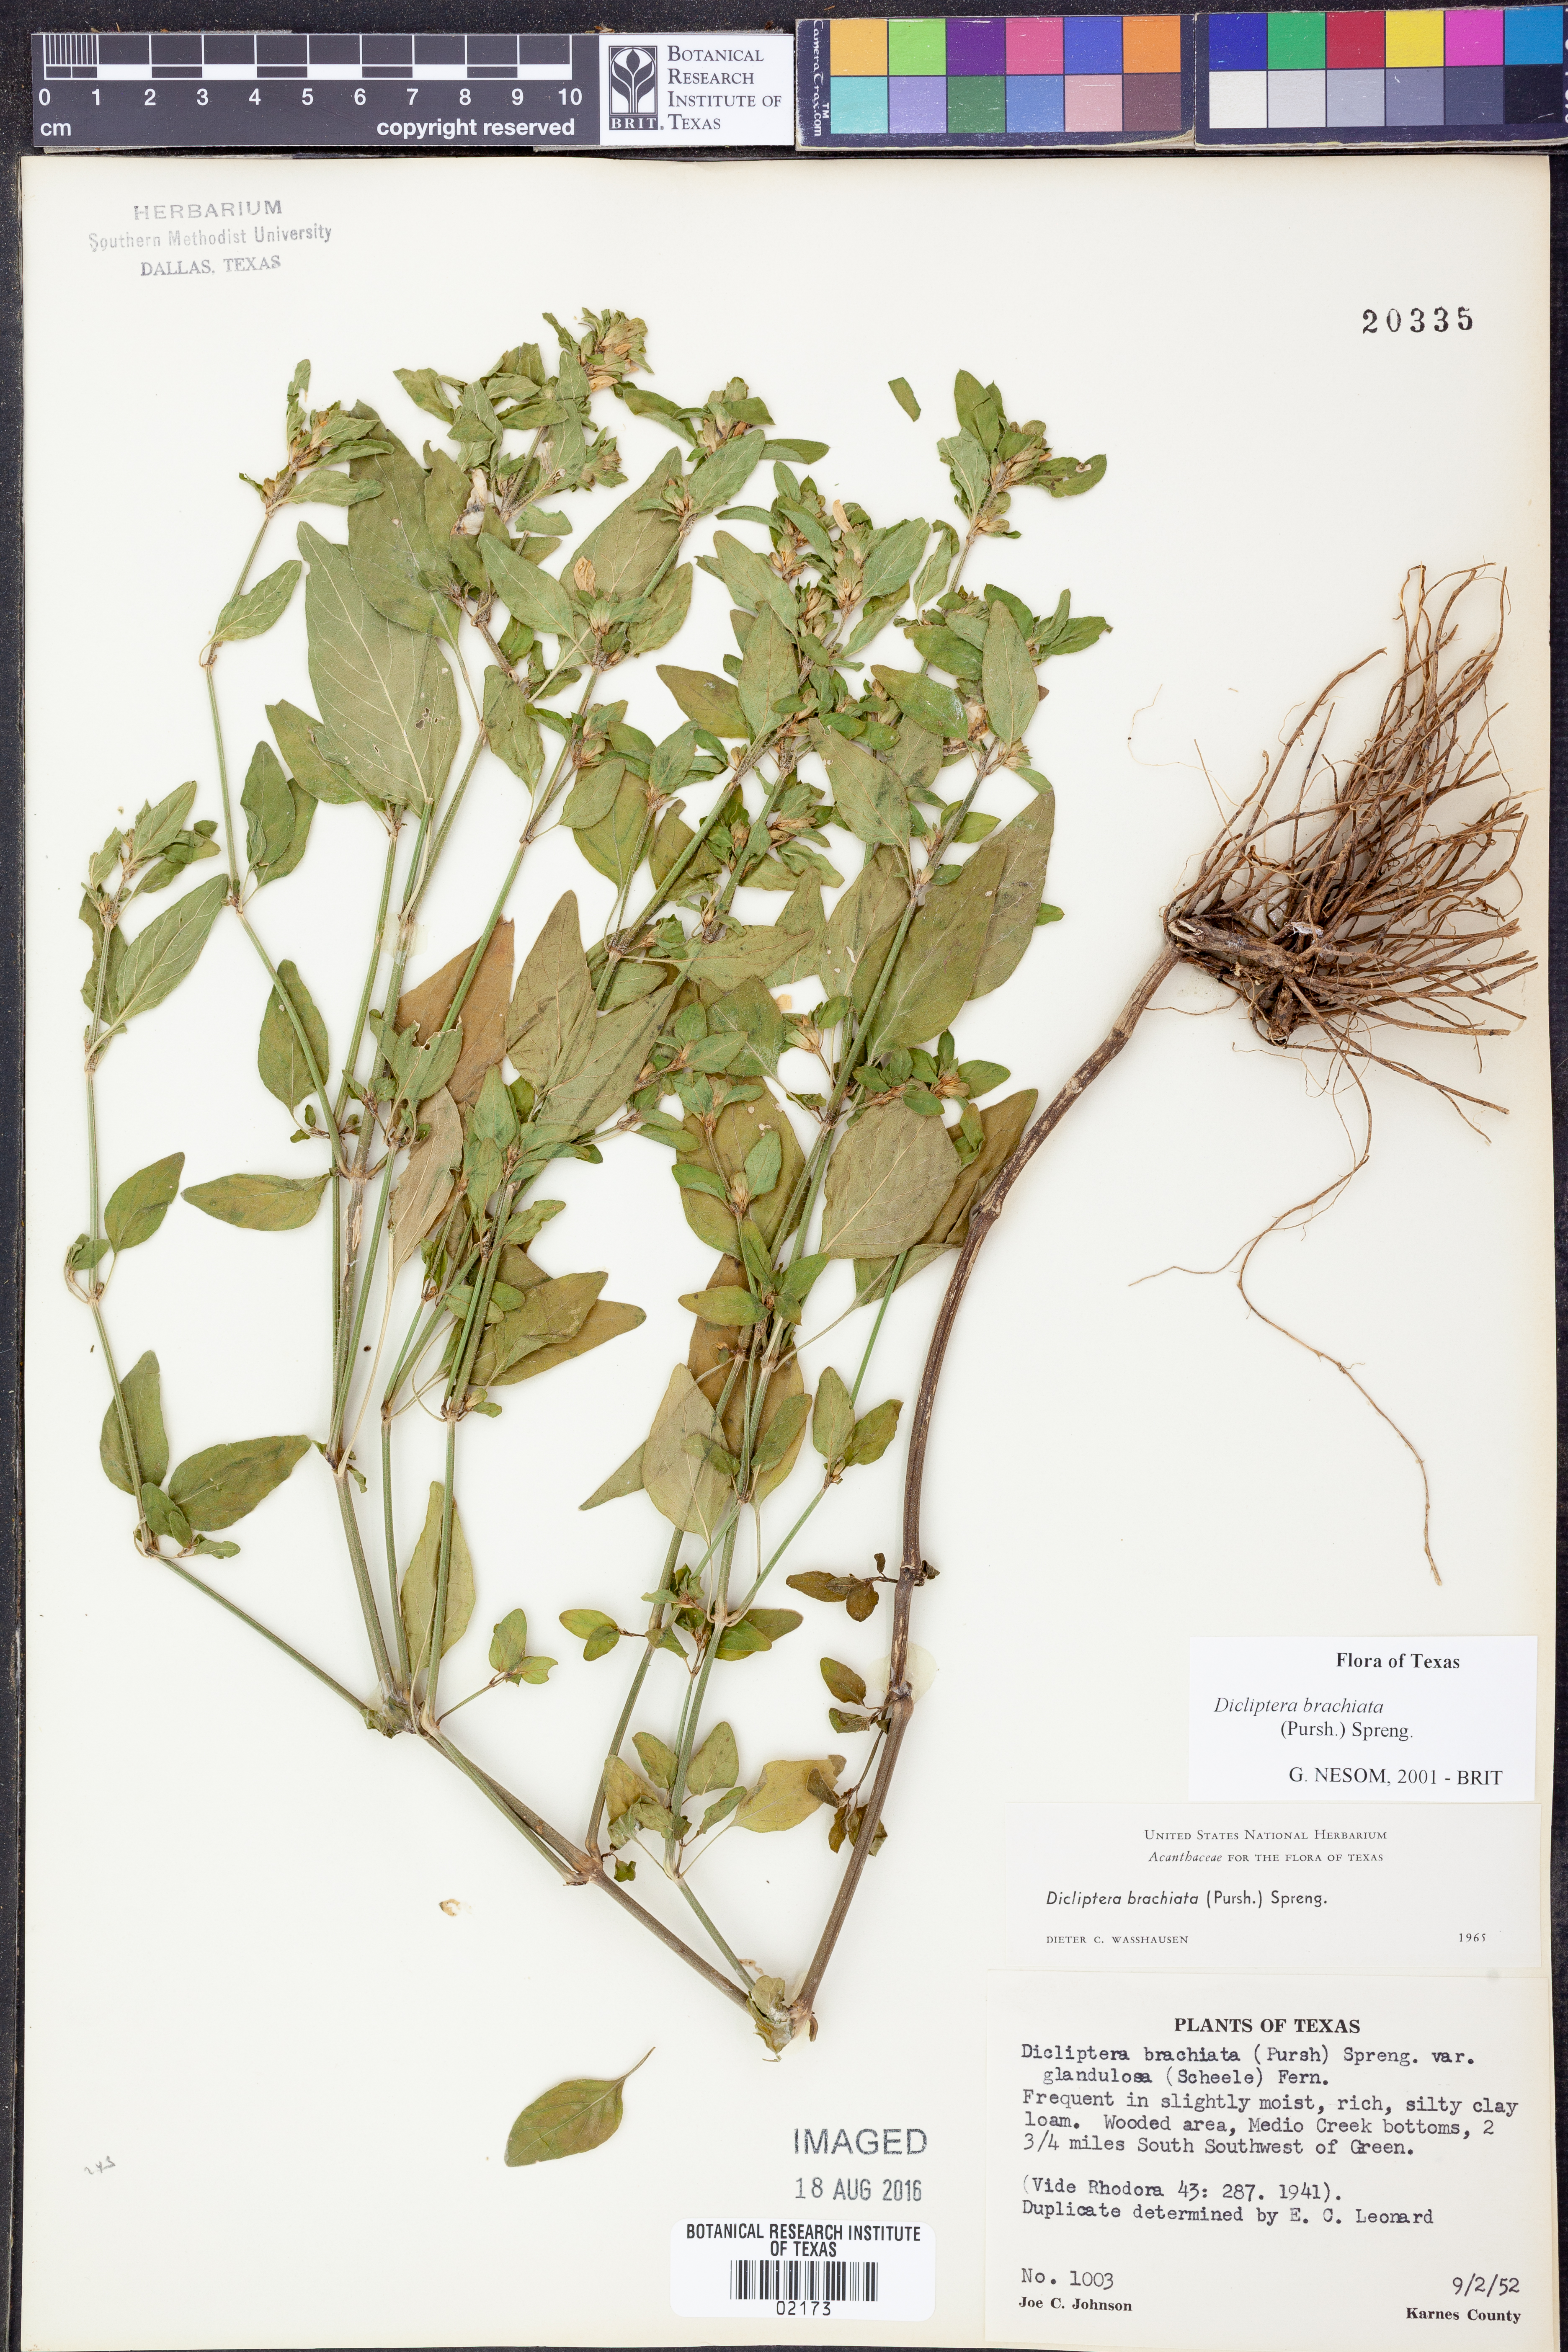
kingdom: Plantae
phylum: Tracheophyta
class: Magnoliopsida
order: Lamiales
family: Acanthaceae
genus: Dicliptera
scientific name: Dicliptera brachiata
